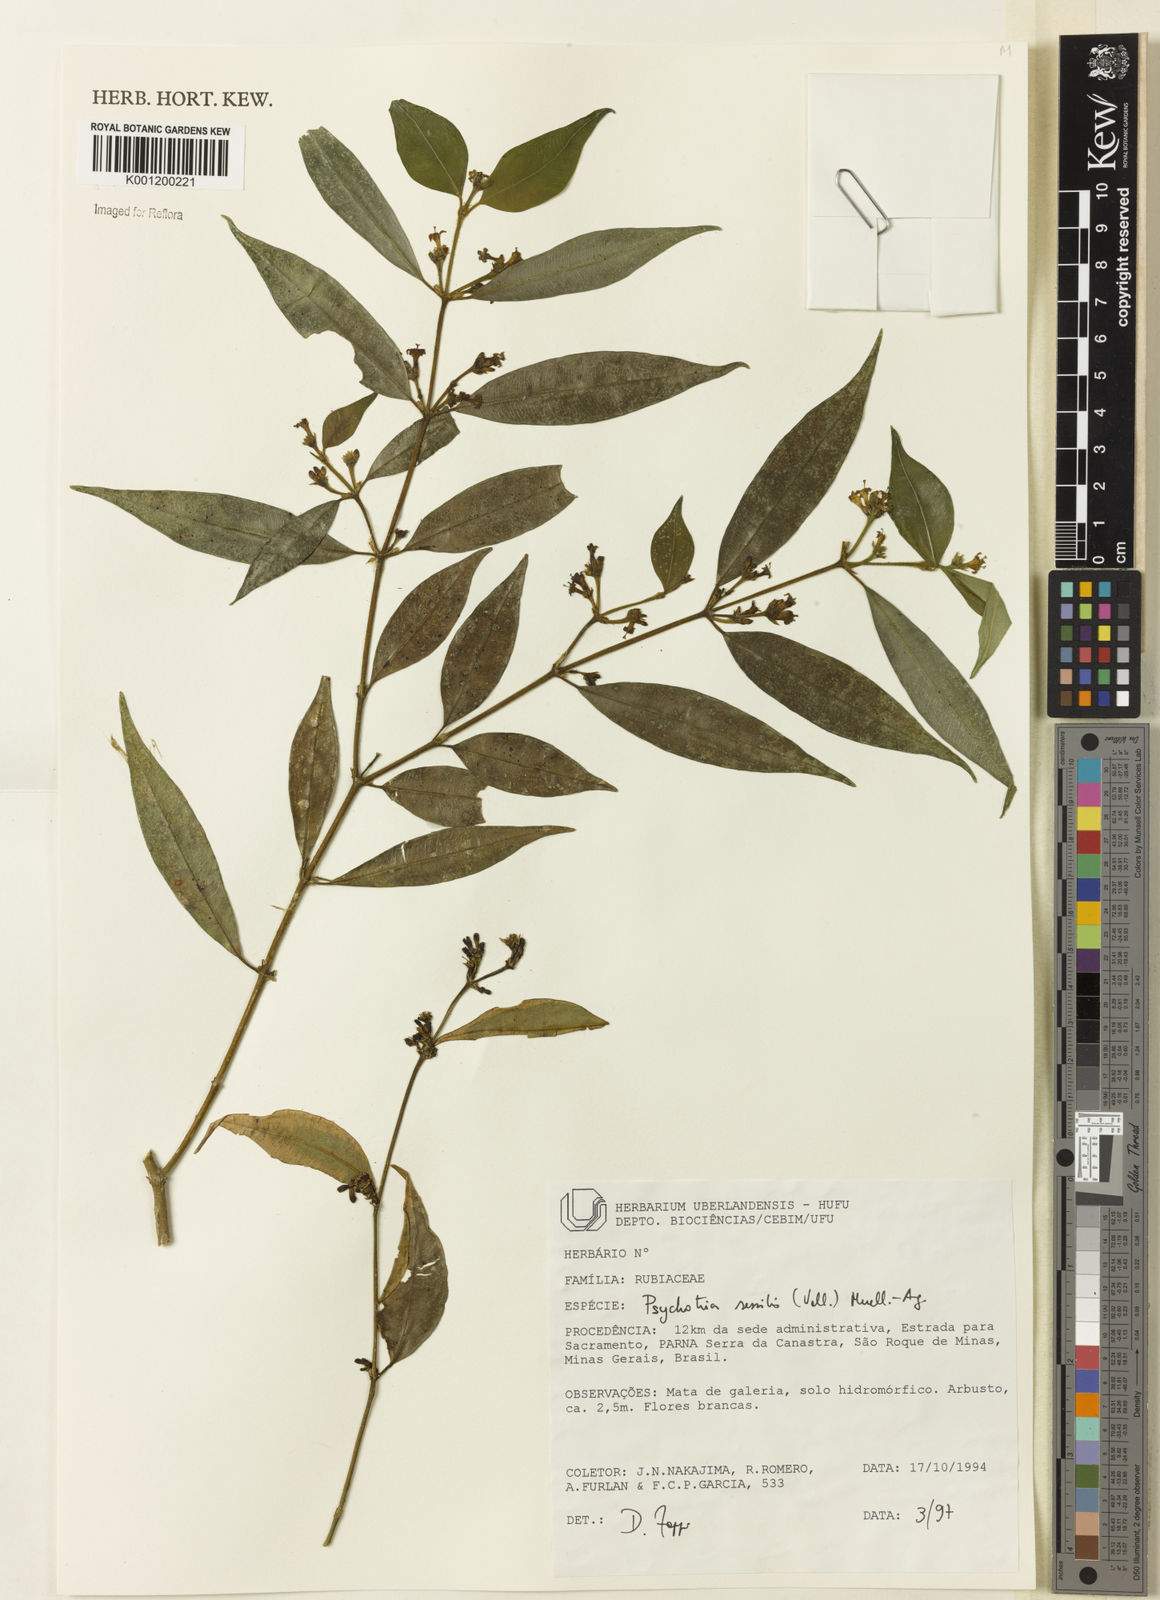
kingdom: Plantae
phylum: Tracheophyta
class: Magnoliopsida
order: Gentianales
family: Rubiaceae
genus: Rudgea
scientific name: Rudgea sessilis
